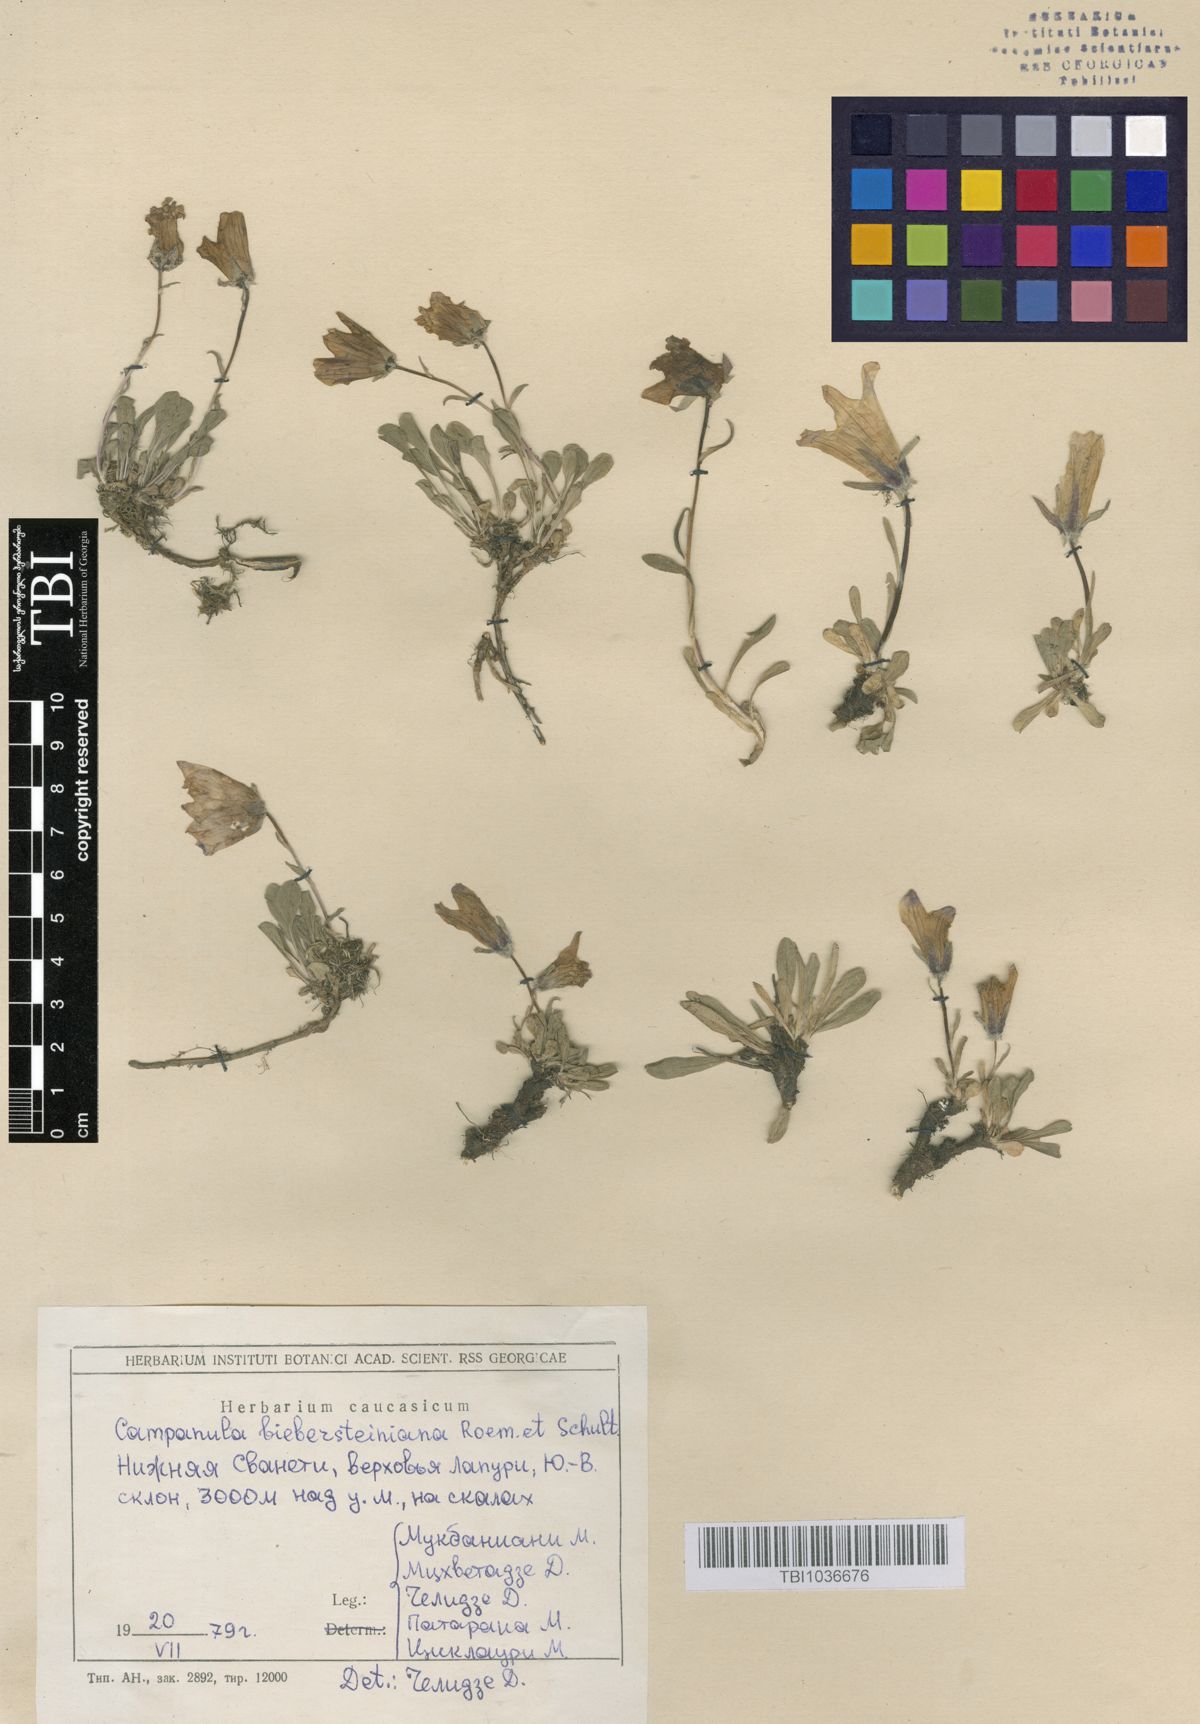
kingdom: Plantae
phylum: Tracheophyta
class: Magnoliopsida
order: Asterales
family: Campanulaceae
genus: Campanula
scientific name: Campanula tridentata
